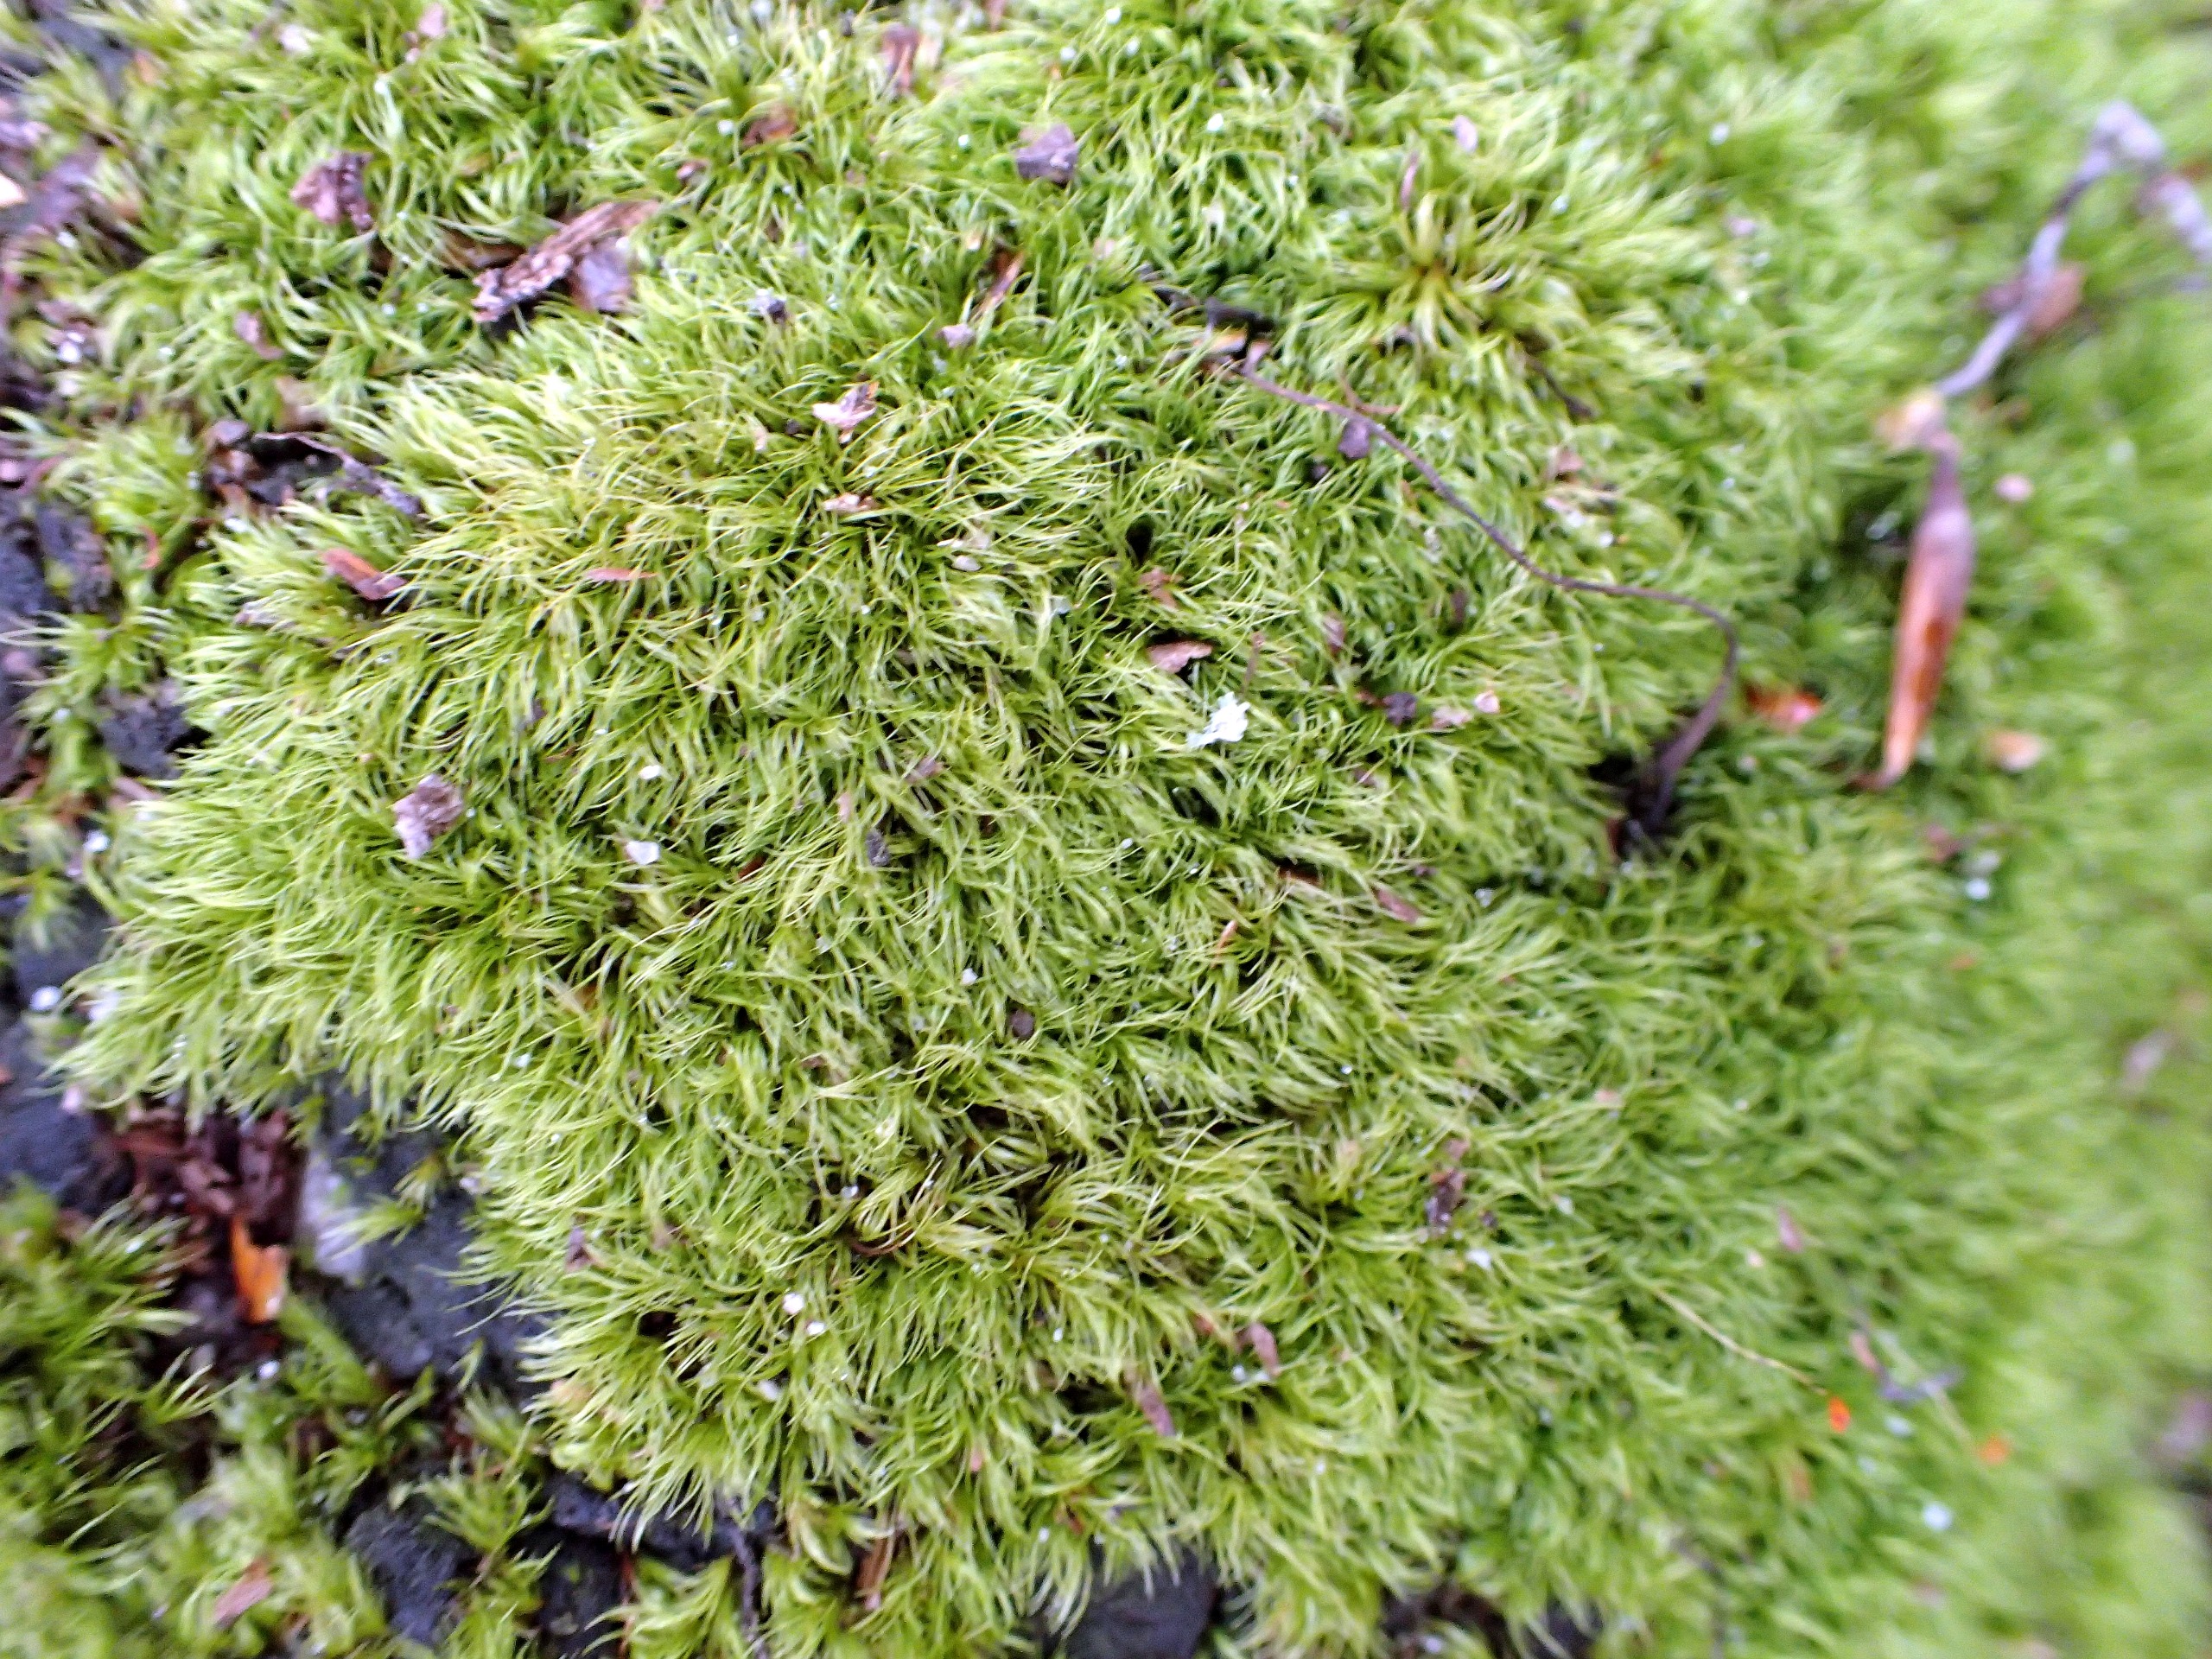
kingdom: Plantae
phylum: Bryophyta
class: Bryopsida
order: Dicranales
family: Dicranellaceae
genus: Dicranella
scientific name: Dicranella heteromalla
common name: Almindelig fløjlsmos
